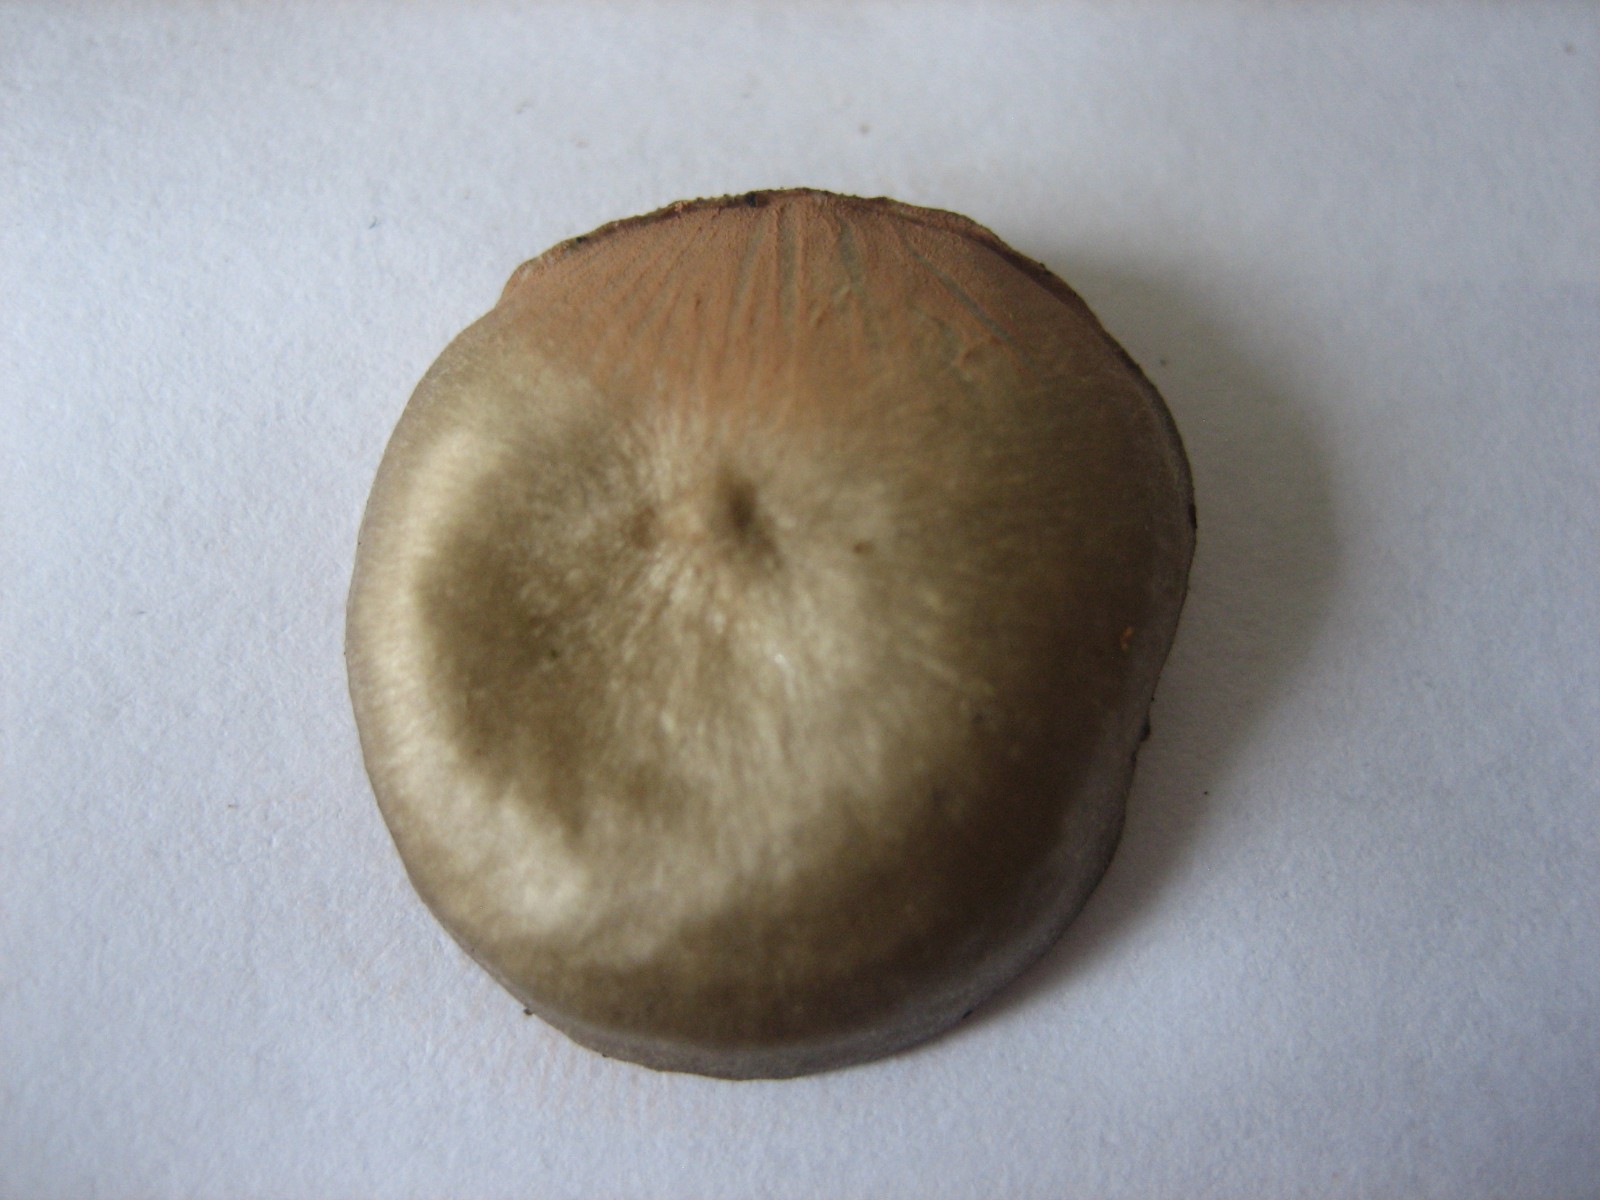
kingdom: Fungi
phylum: Basidiomycota
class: Agaricomycetes
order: Agaricales
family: Entolomataceae
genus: Entoloma
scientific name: Entoloma
